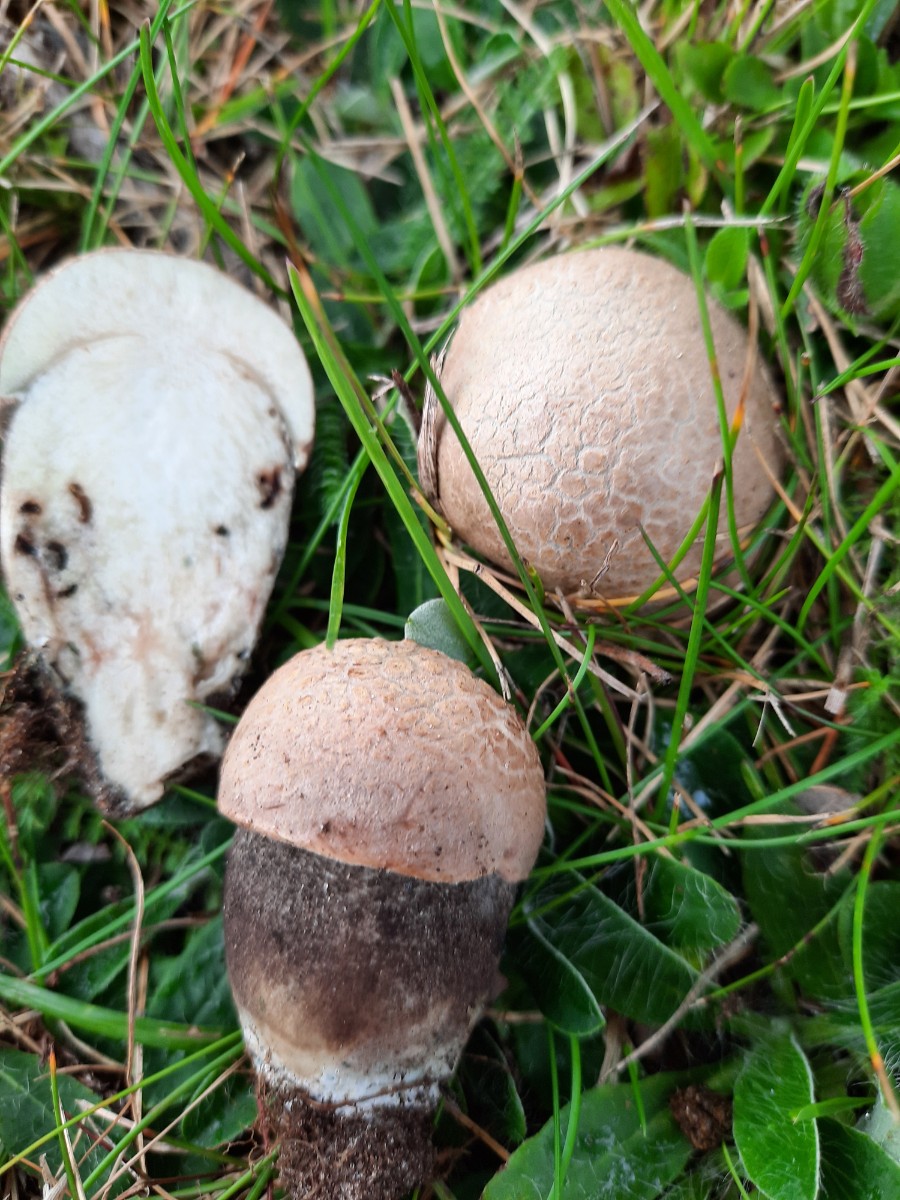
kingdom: Fungi
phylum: Basidiomycota
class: Agaricomycetes
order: Boletales
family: Boletaceae
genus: Leccinum
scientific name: Leccinum duriusculum
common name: poppel-skælrørhat
